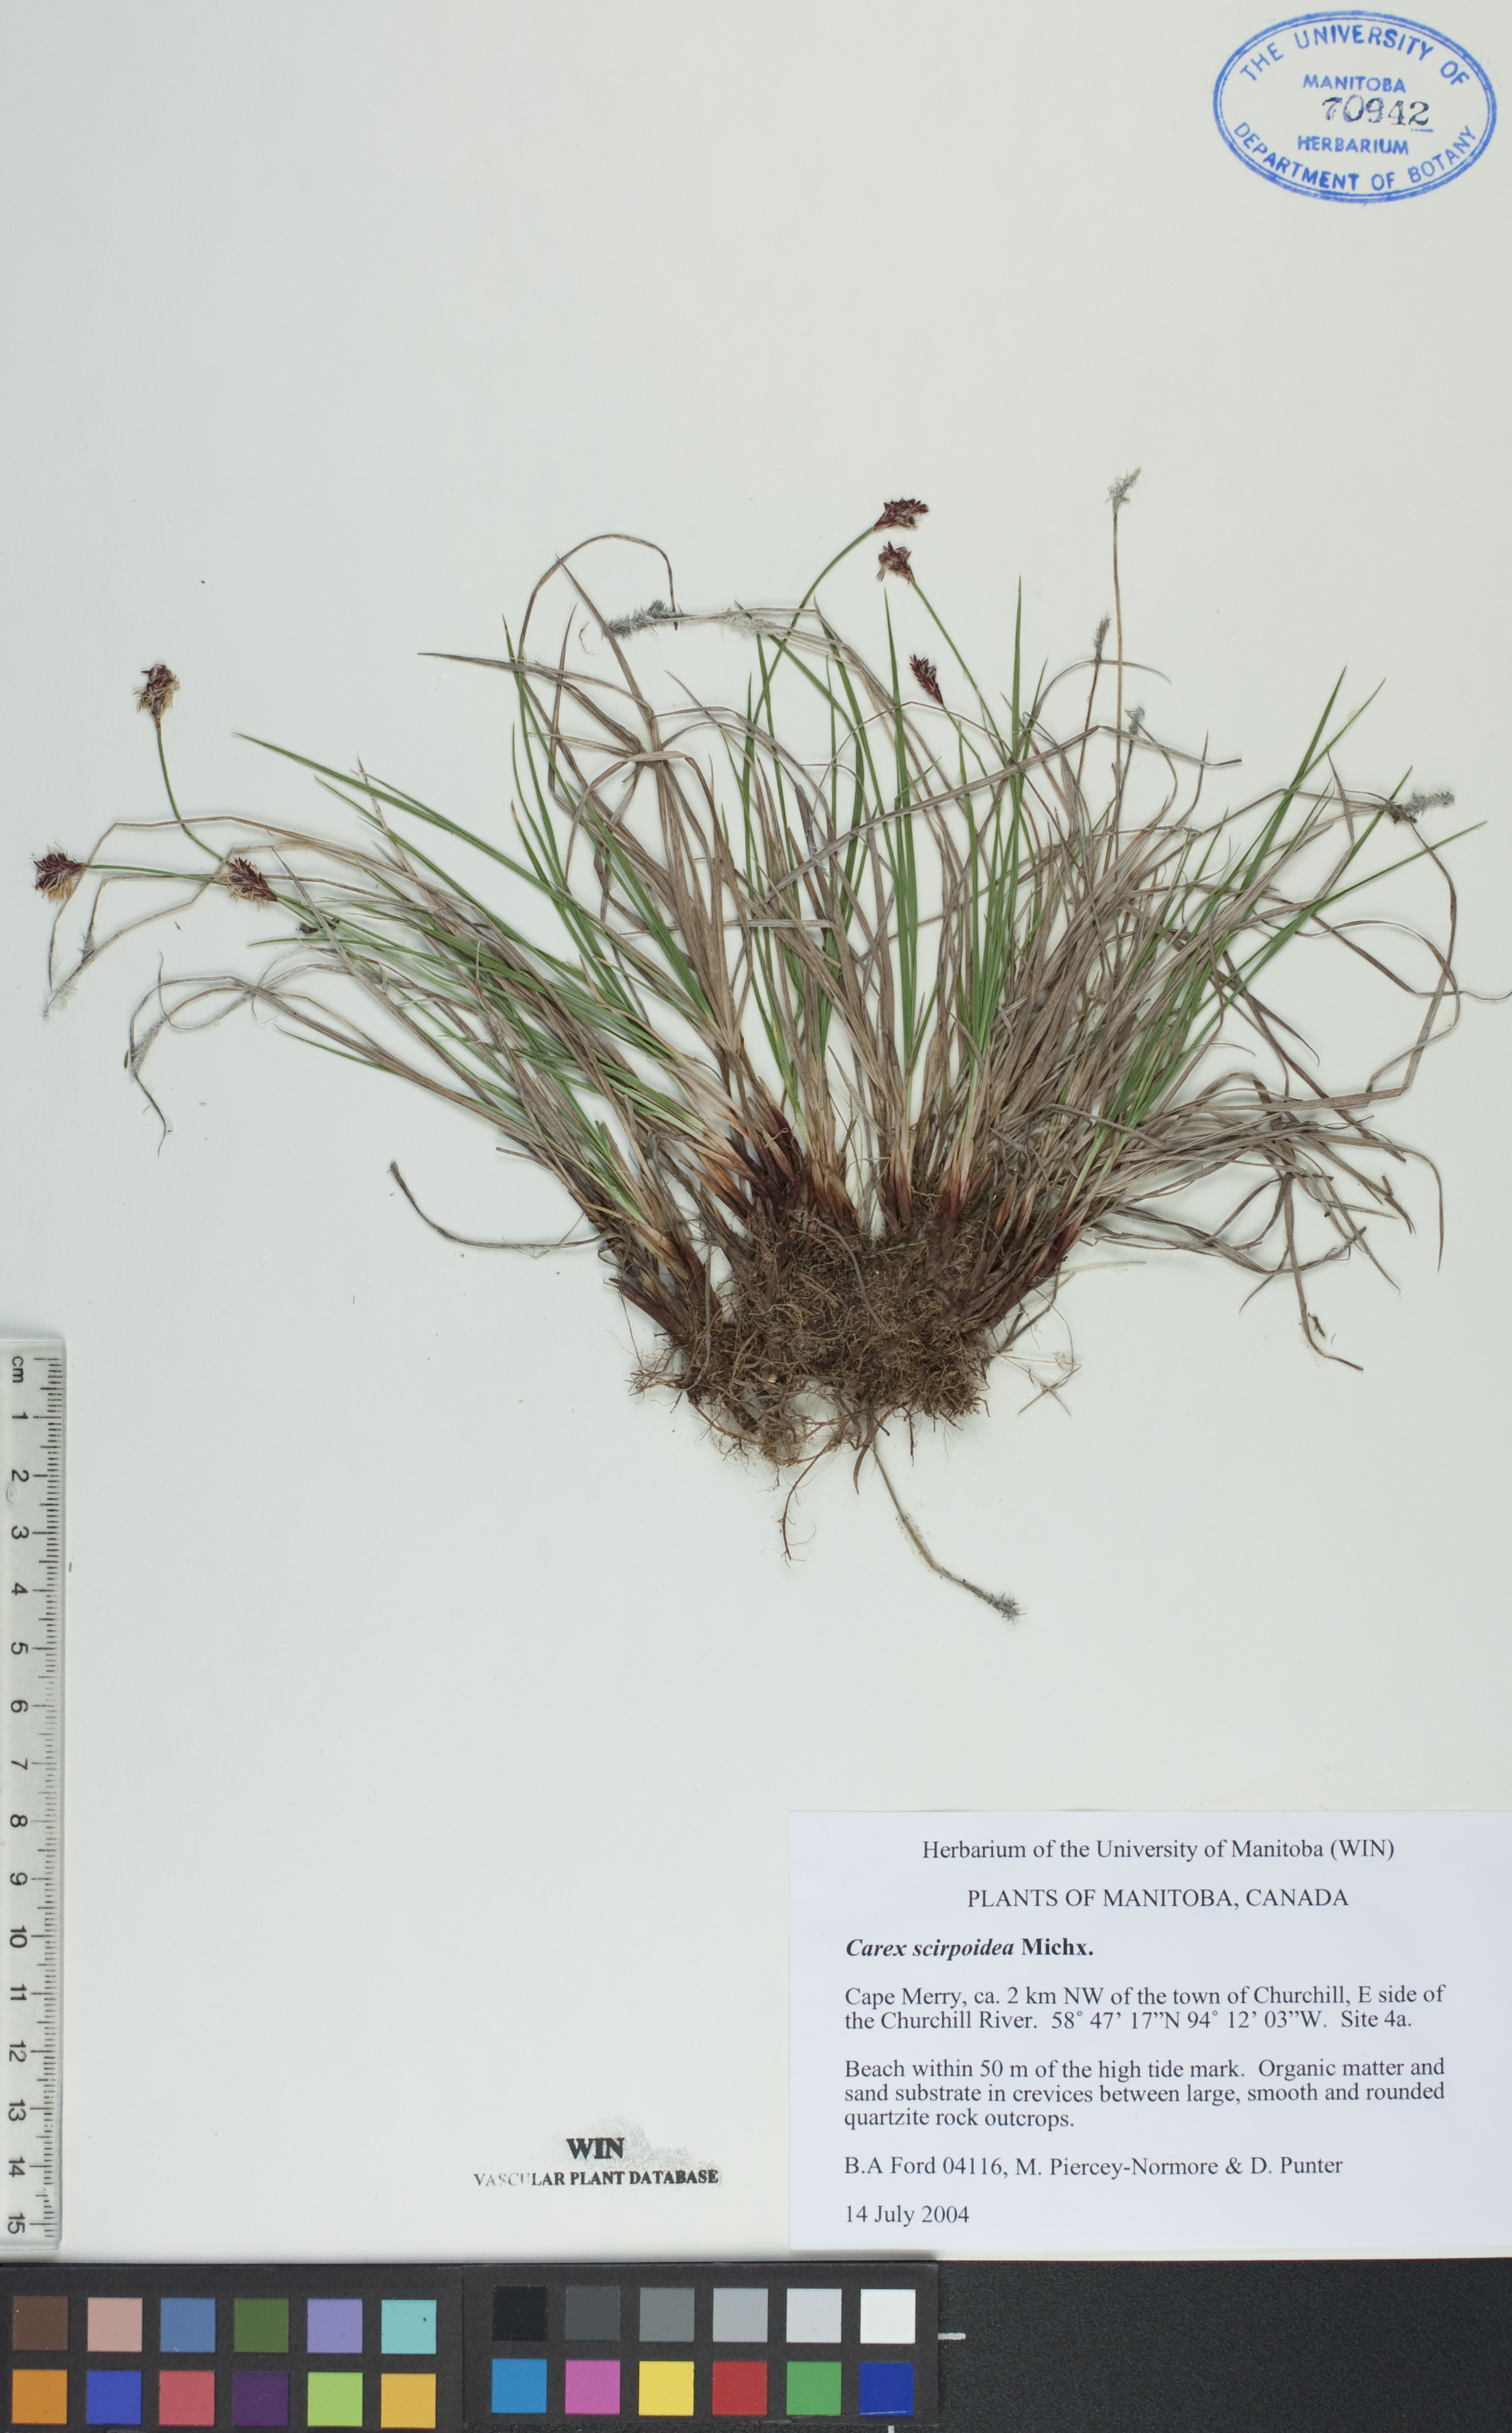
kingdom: Plantae
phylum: Tracheophyta
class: Liliopsida
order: Poales
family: Cyperaceae
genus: Carex
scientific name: Carex scirpoidea
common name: Canada single-spike sedge
